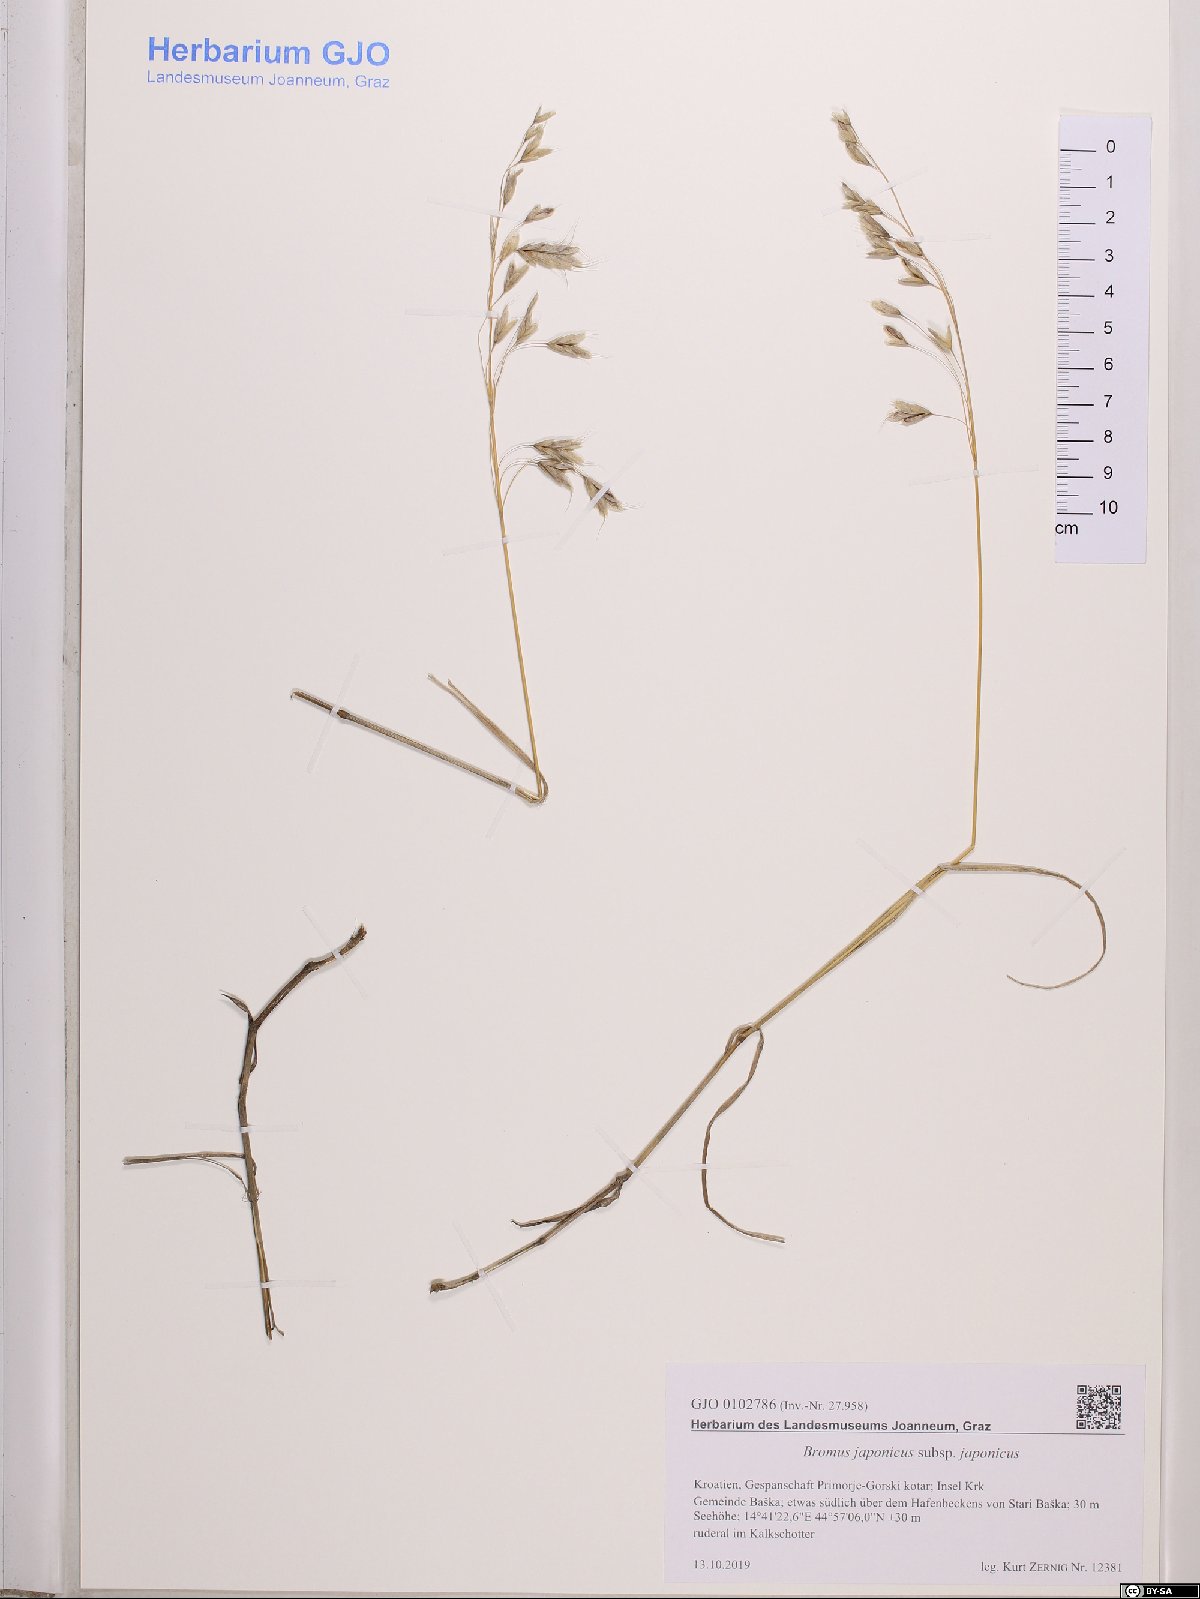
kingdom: Plantae
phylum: Tracheophyta
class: Liliopsida
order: Poales
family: Poaceae
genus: Bromus
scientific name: Bromus japonicus
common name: Japanese brome
